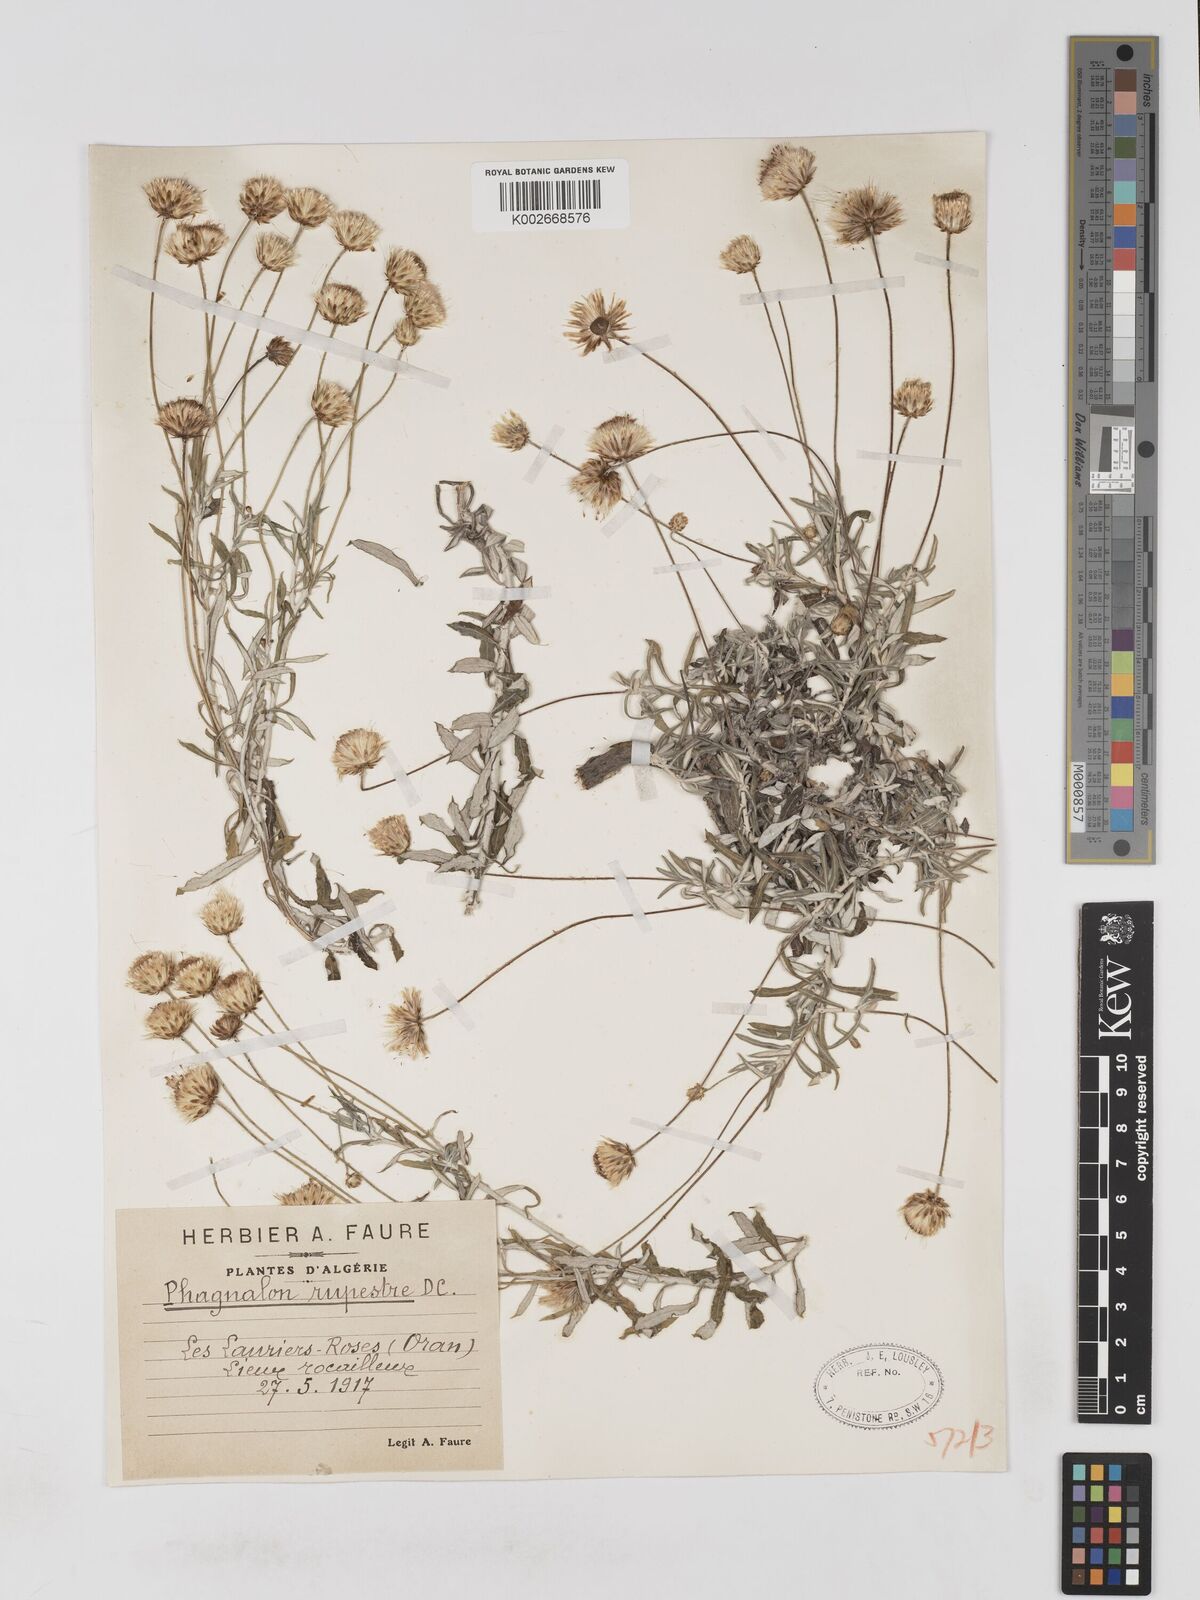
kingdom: Plantae
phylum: Tracheophyta
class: Magnoliopsida
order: Asterales
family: Asteraceae
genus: Phagnalon
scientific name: Phagnalon rupestre
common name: Rock phagnalon
